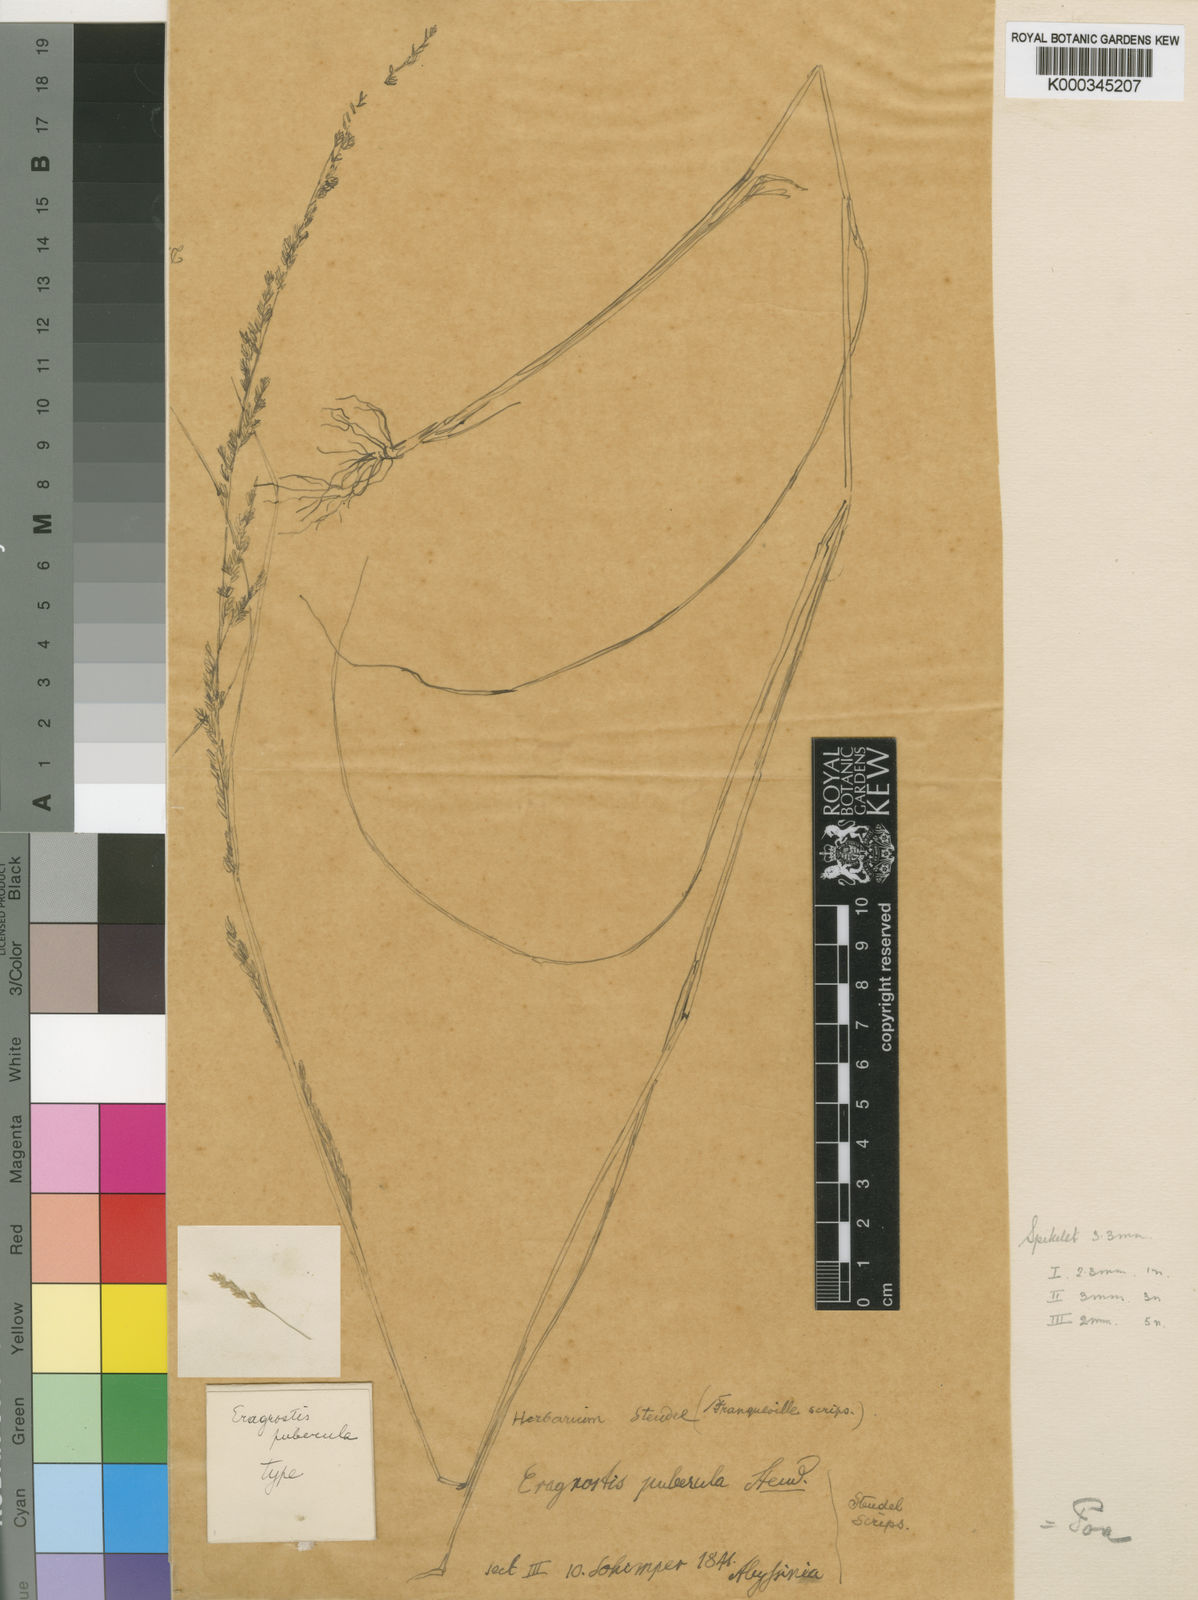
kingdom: Plantae
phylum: Tracheophyta
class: Liliopsida
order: Poales
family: Poaceae
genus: Poa
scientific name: Poa leptoclada
